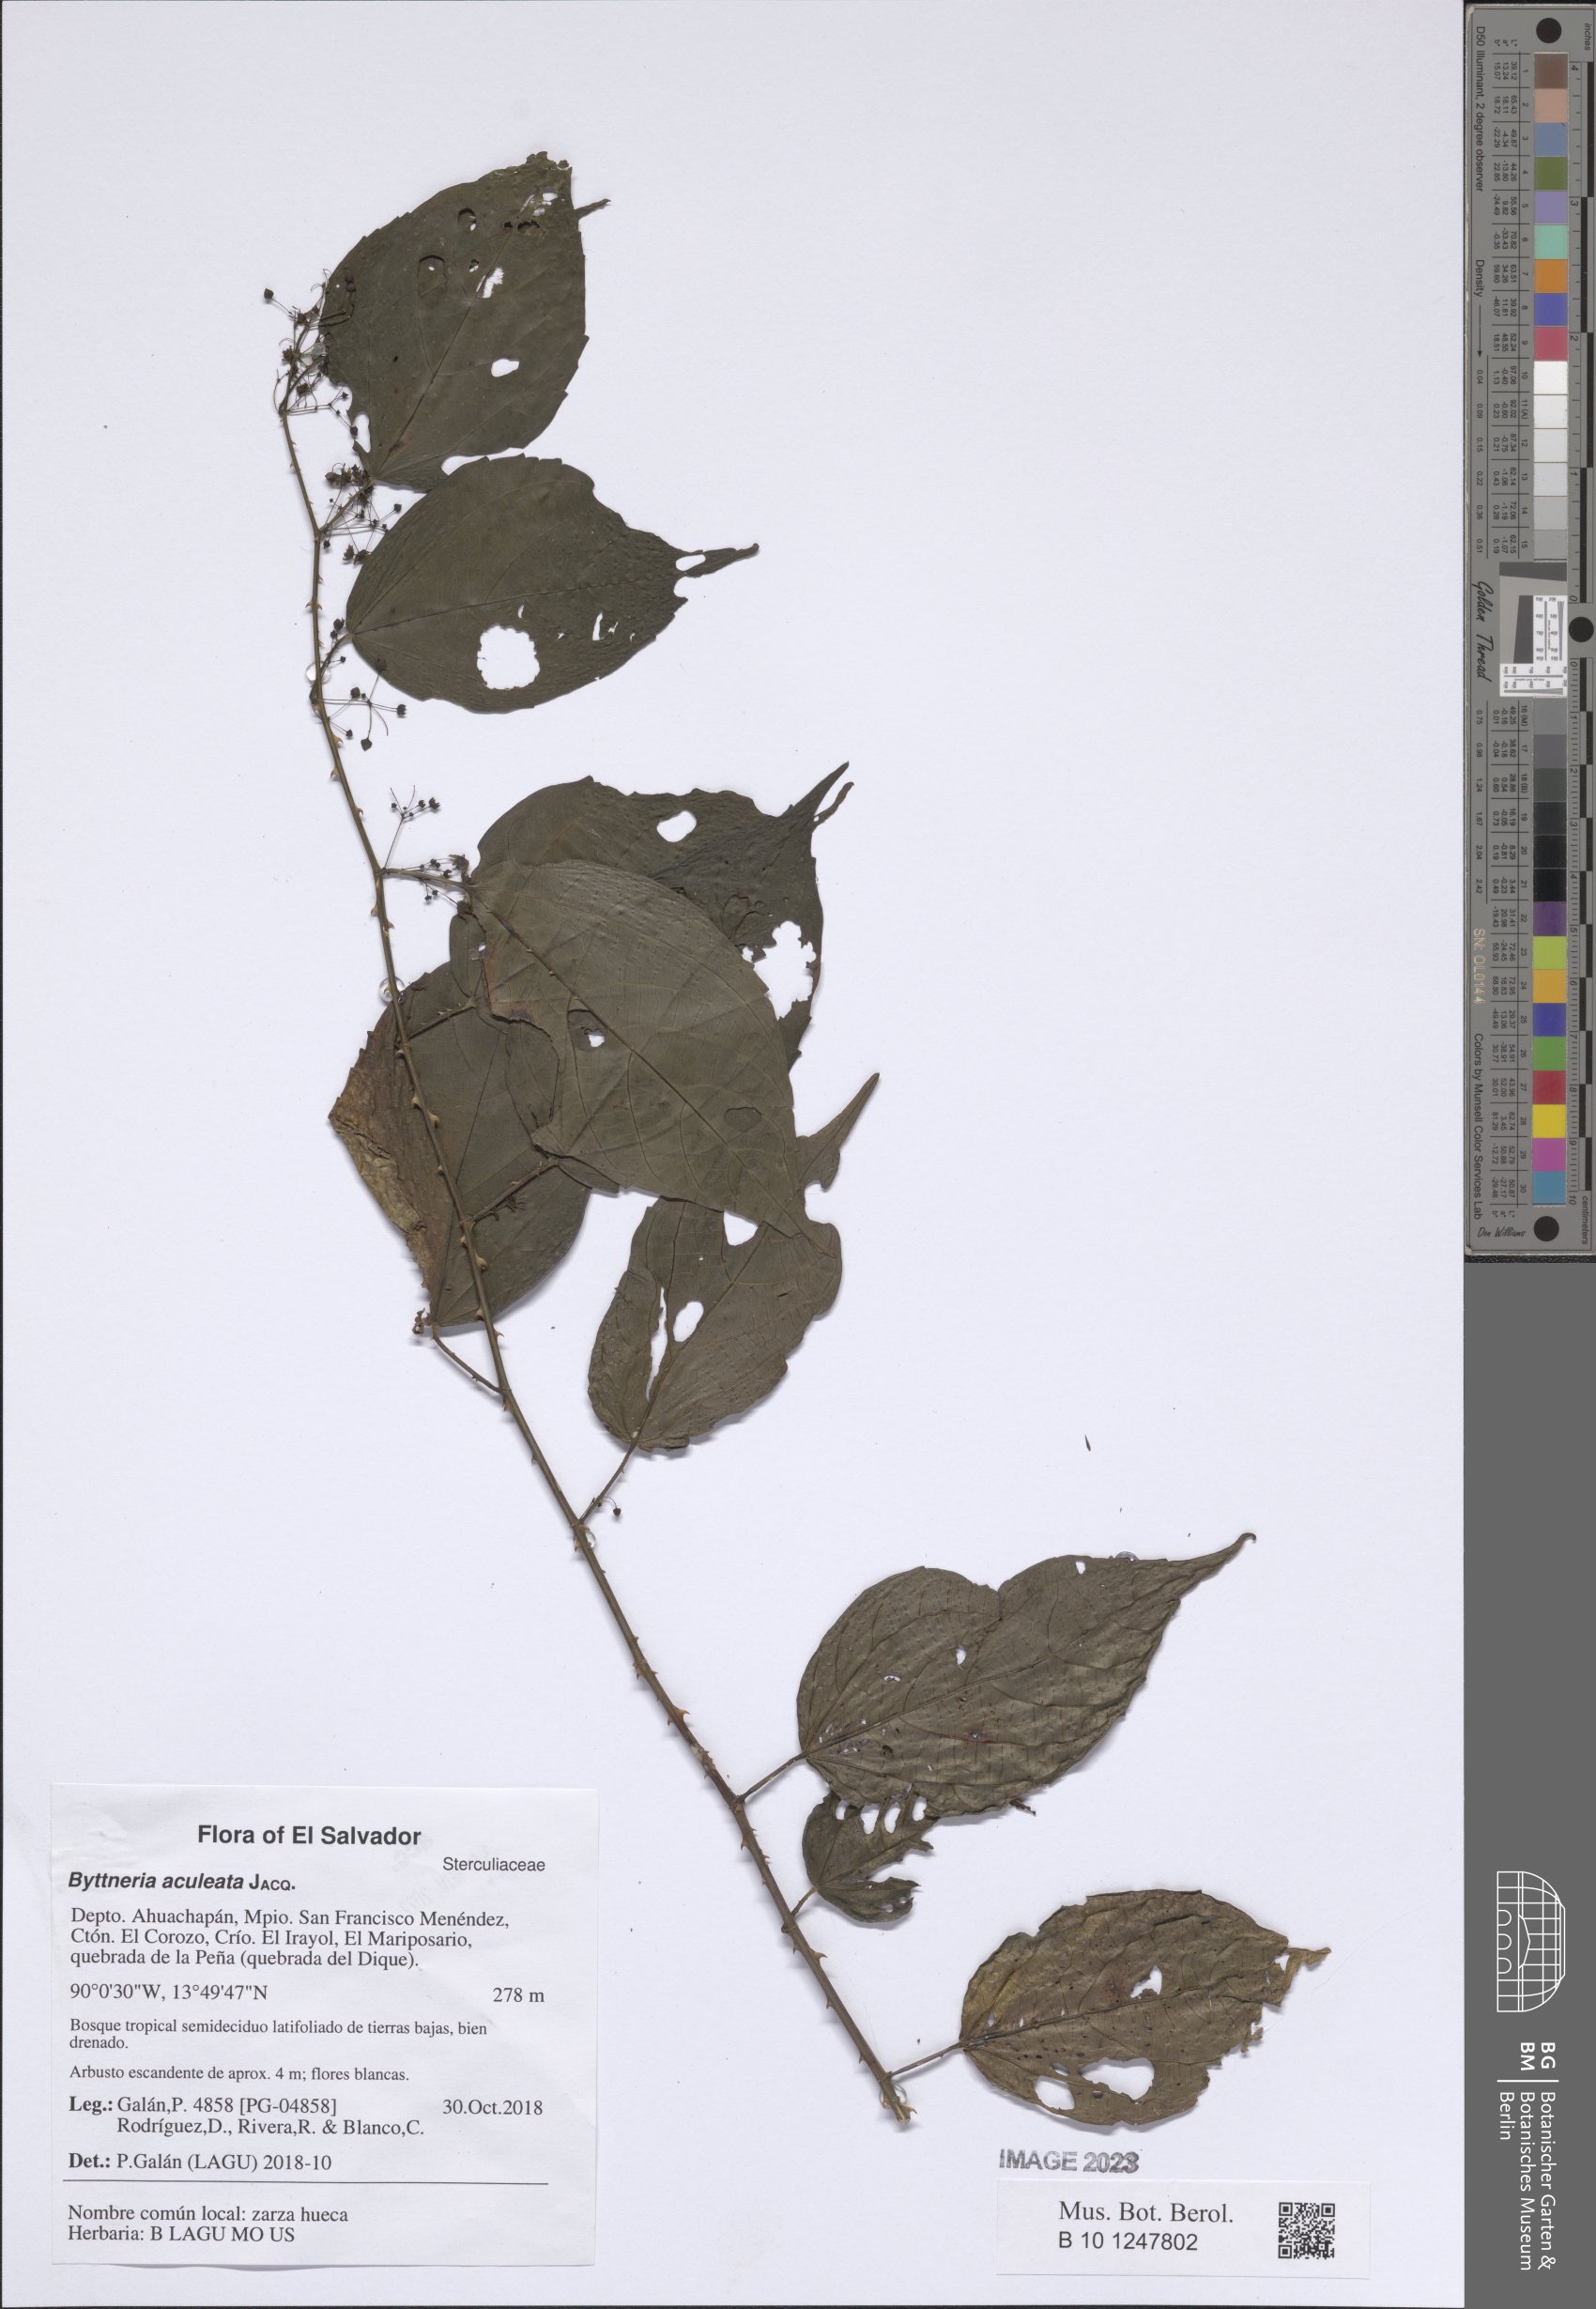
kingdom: Plantae
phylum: Tracheophyta
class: Magnoliopsida
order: Malvales
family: Malvaceae
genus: Byttneria
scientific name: Byttneria aculeata
